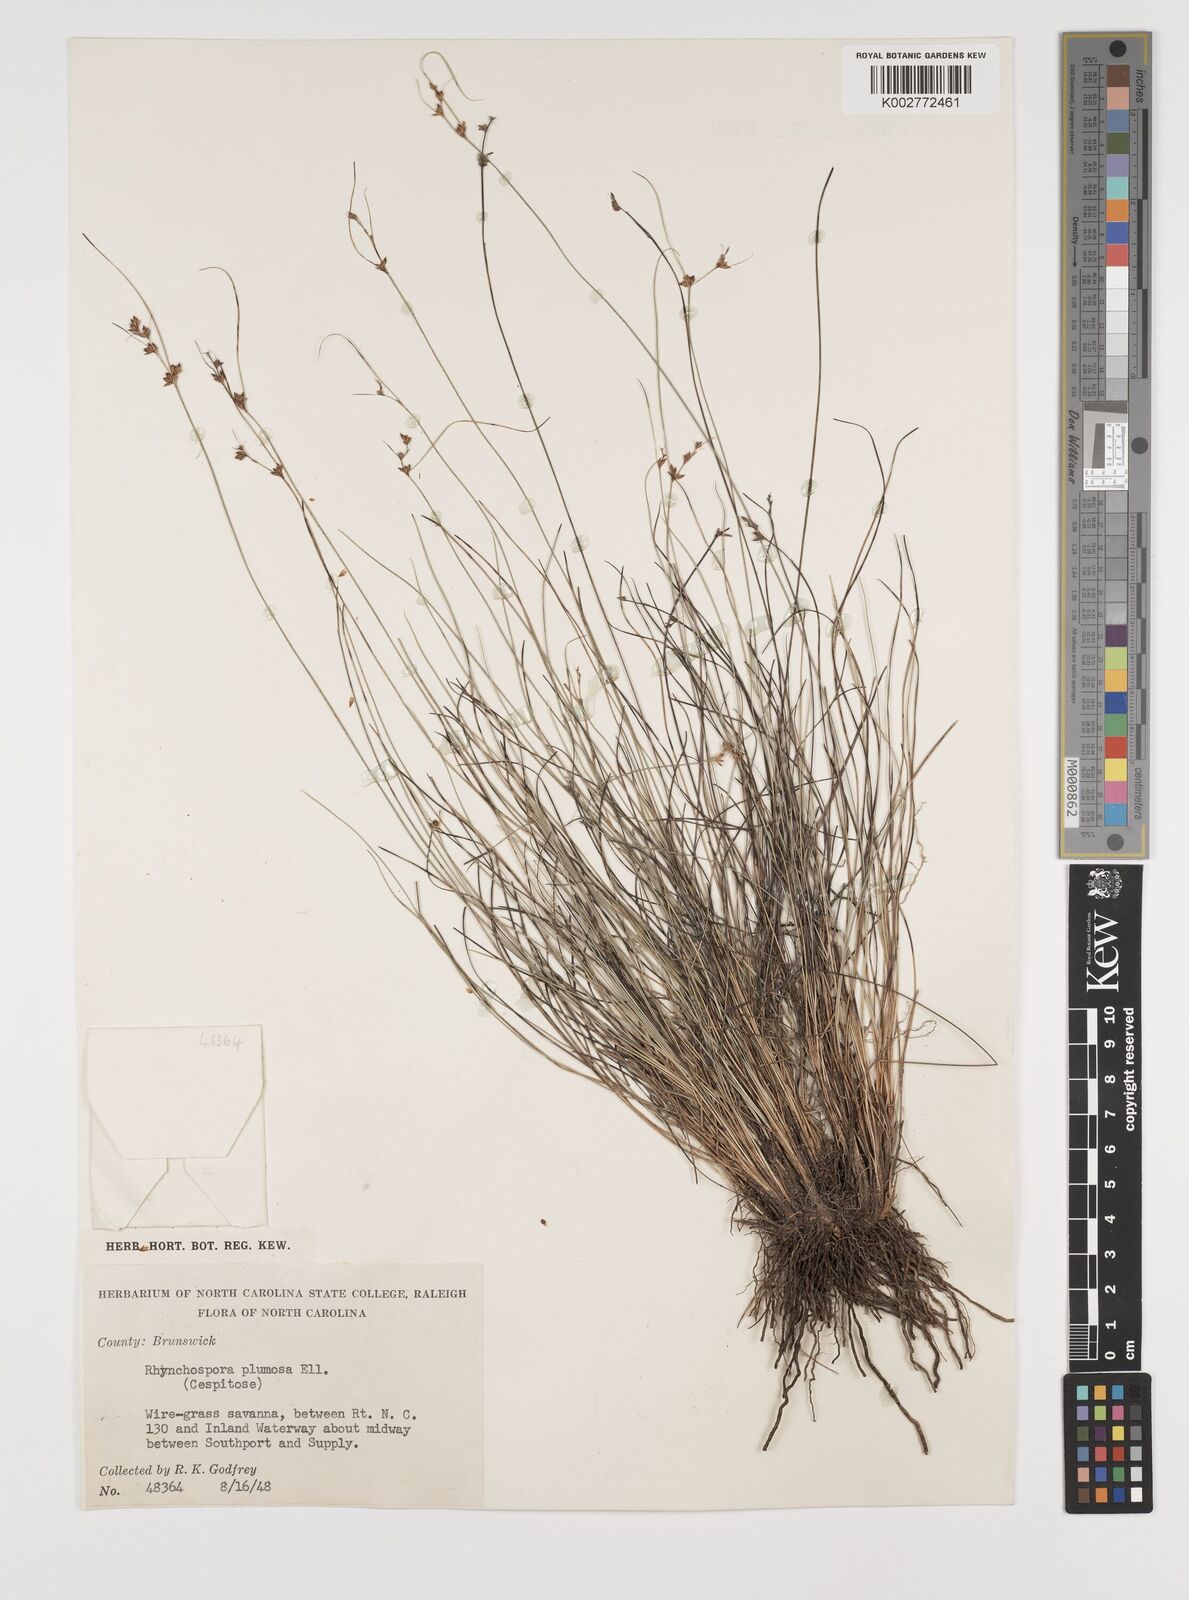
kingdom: Plantae
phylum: Tracheophyta
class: Liliopsida
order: Poales
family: Cyperaceae
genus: Rhynchospora
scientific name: Rhynchospora plumosa
